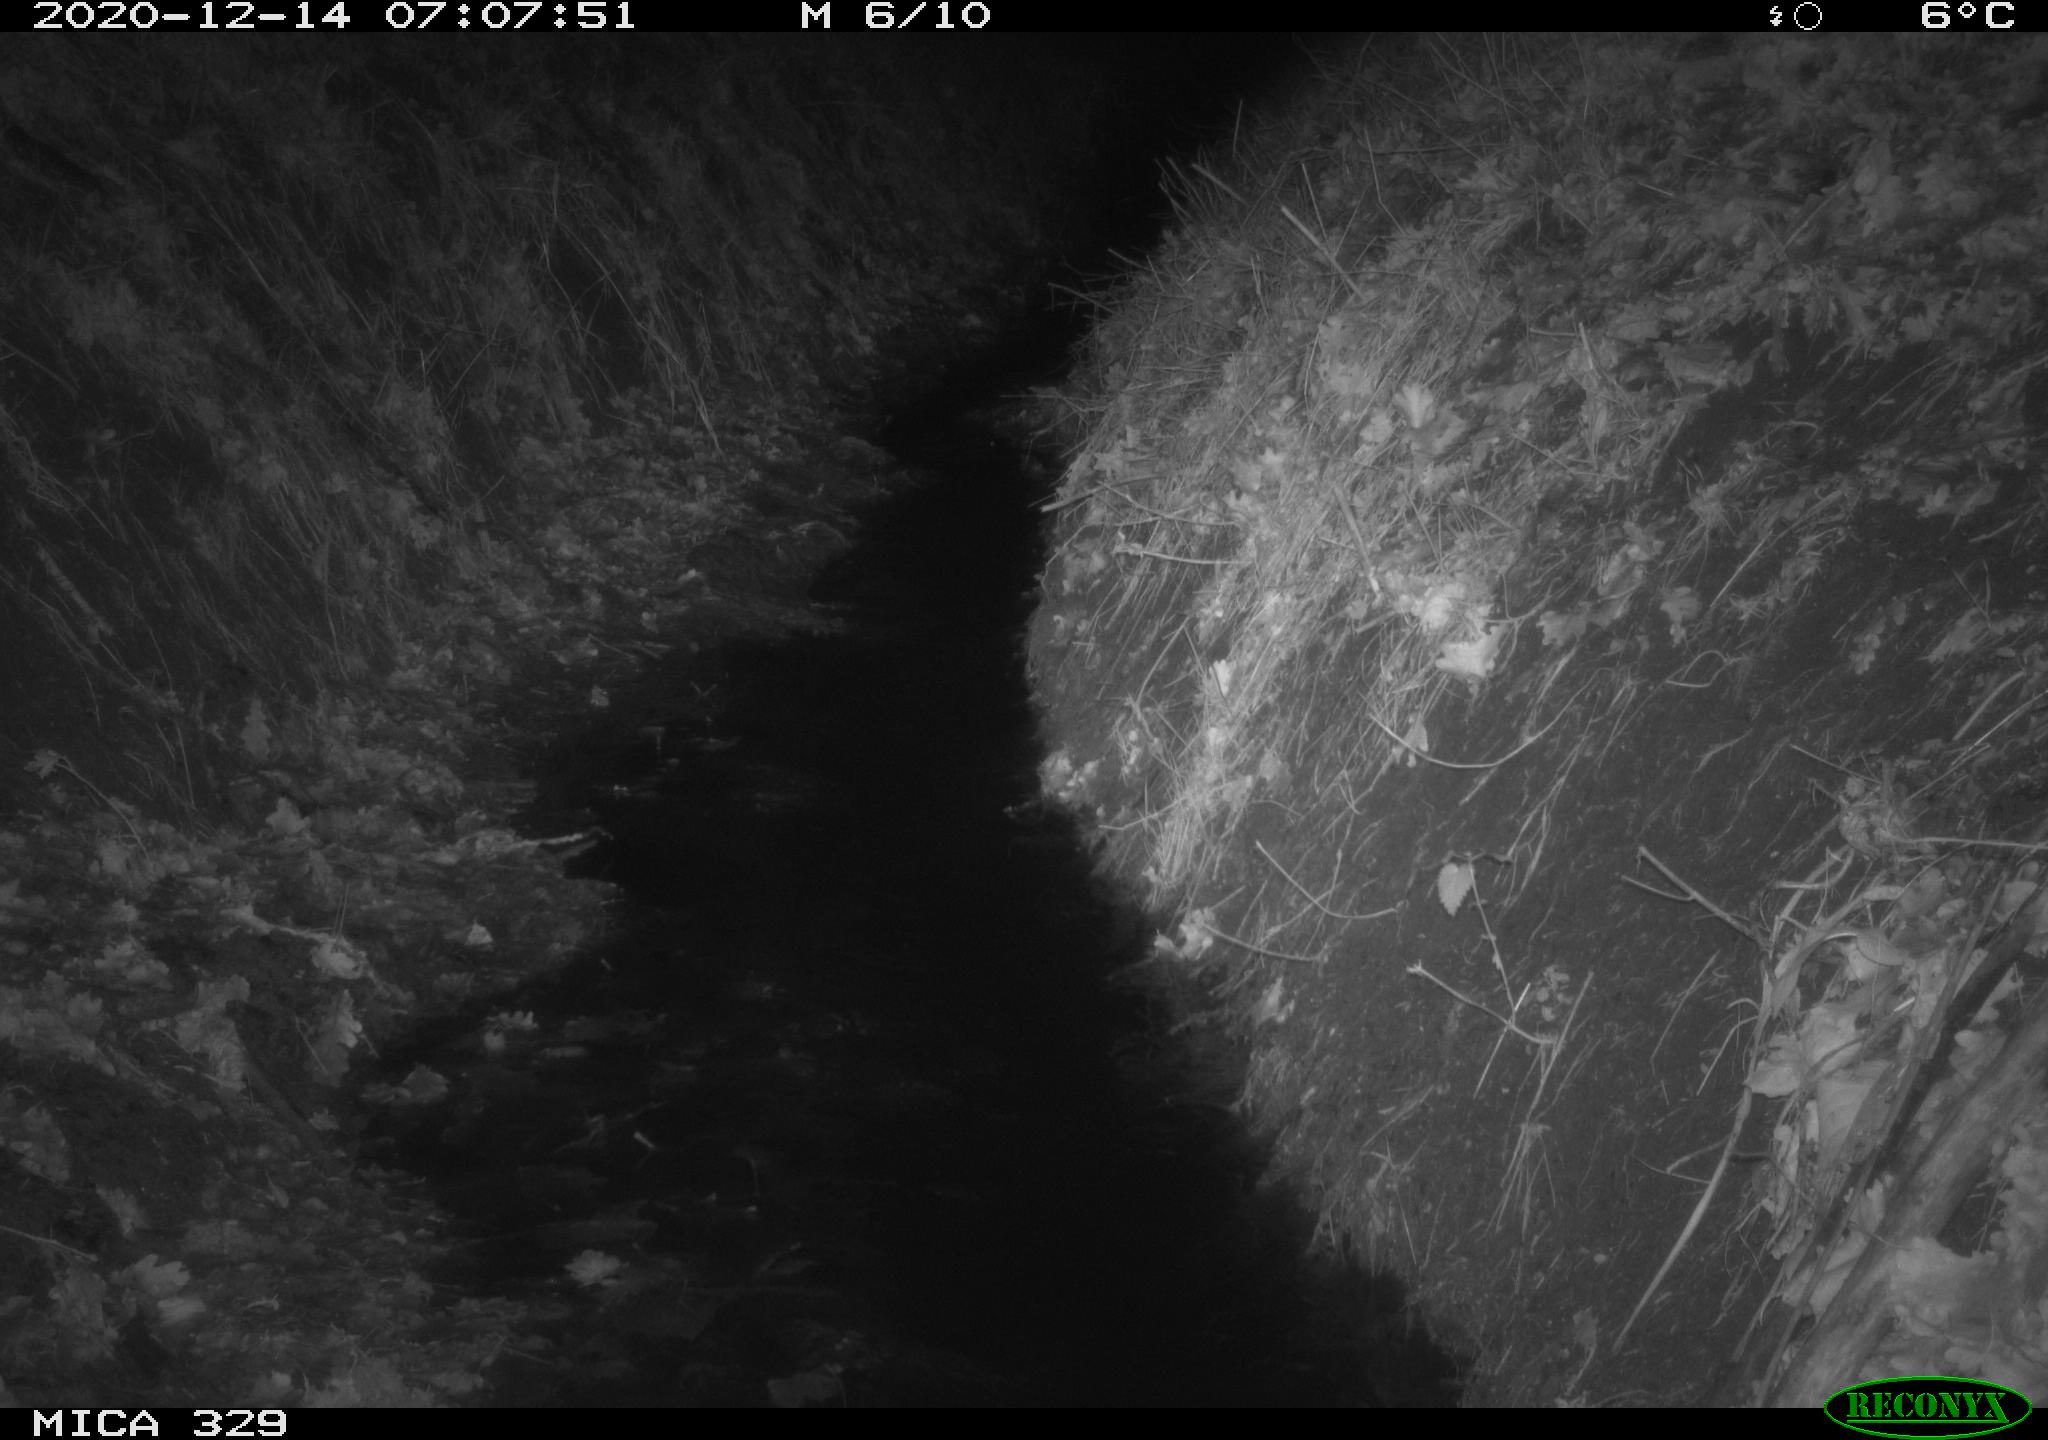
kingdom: Animalia
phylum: Chordata
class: Mammalia
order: Rodentia
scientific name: Rodentia
